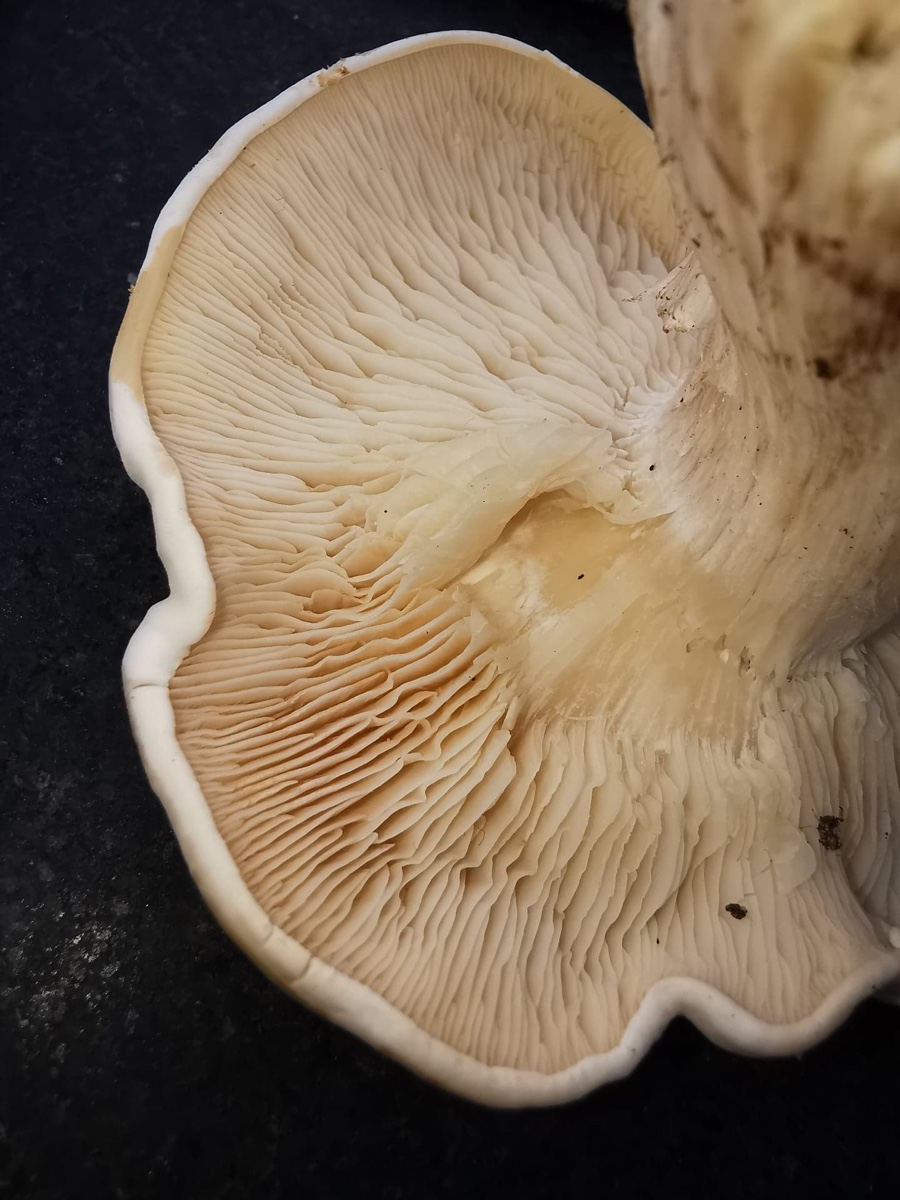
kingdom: Fungi
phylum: Basidiomycota
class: Agaricomycetes
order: Agaricales
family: Lyophyllaceae
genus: Calocybe
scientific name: Calocybe gambosa
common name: vårmusseron
